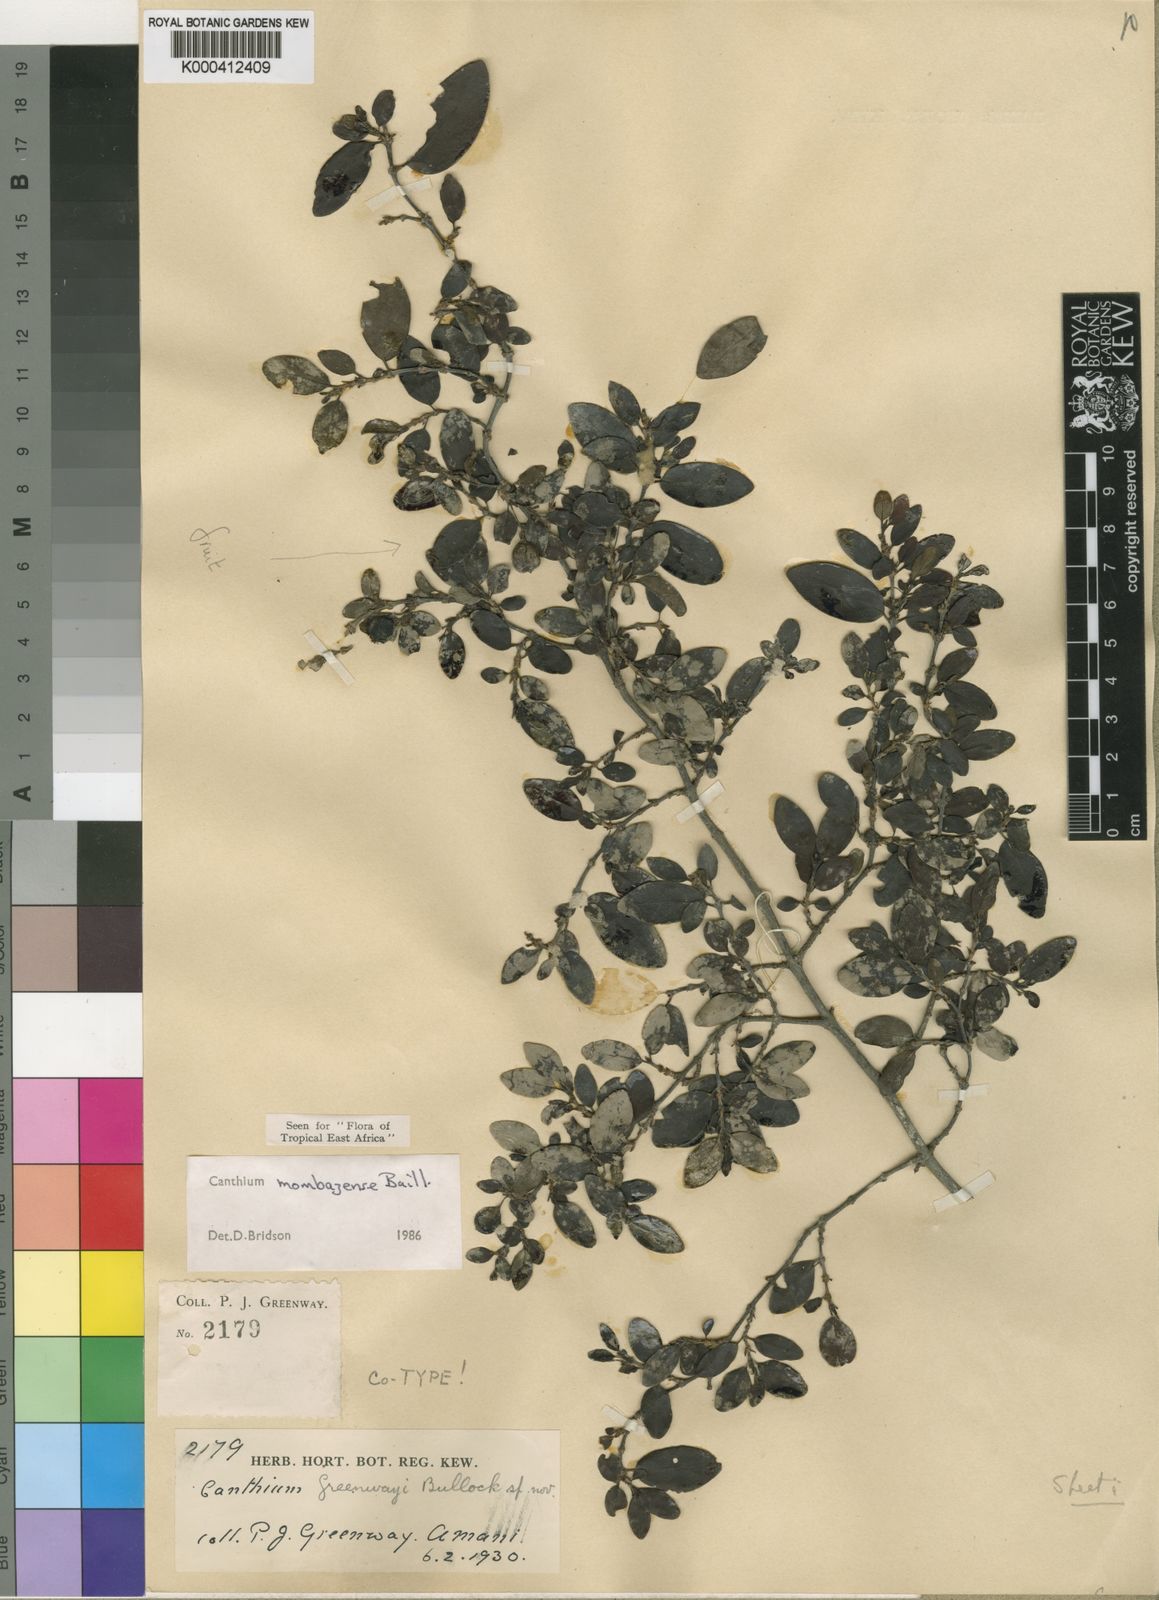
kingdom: Plantae
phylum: Tracheophyta
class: Magnoliopsida
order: Gentianales
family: Rubiaceae
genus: Bullockia
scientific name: Bullockia mombazensis
